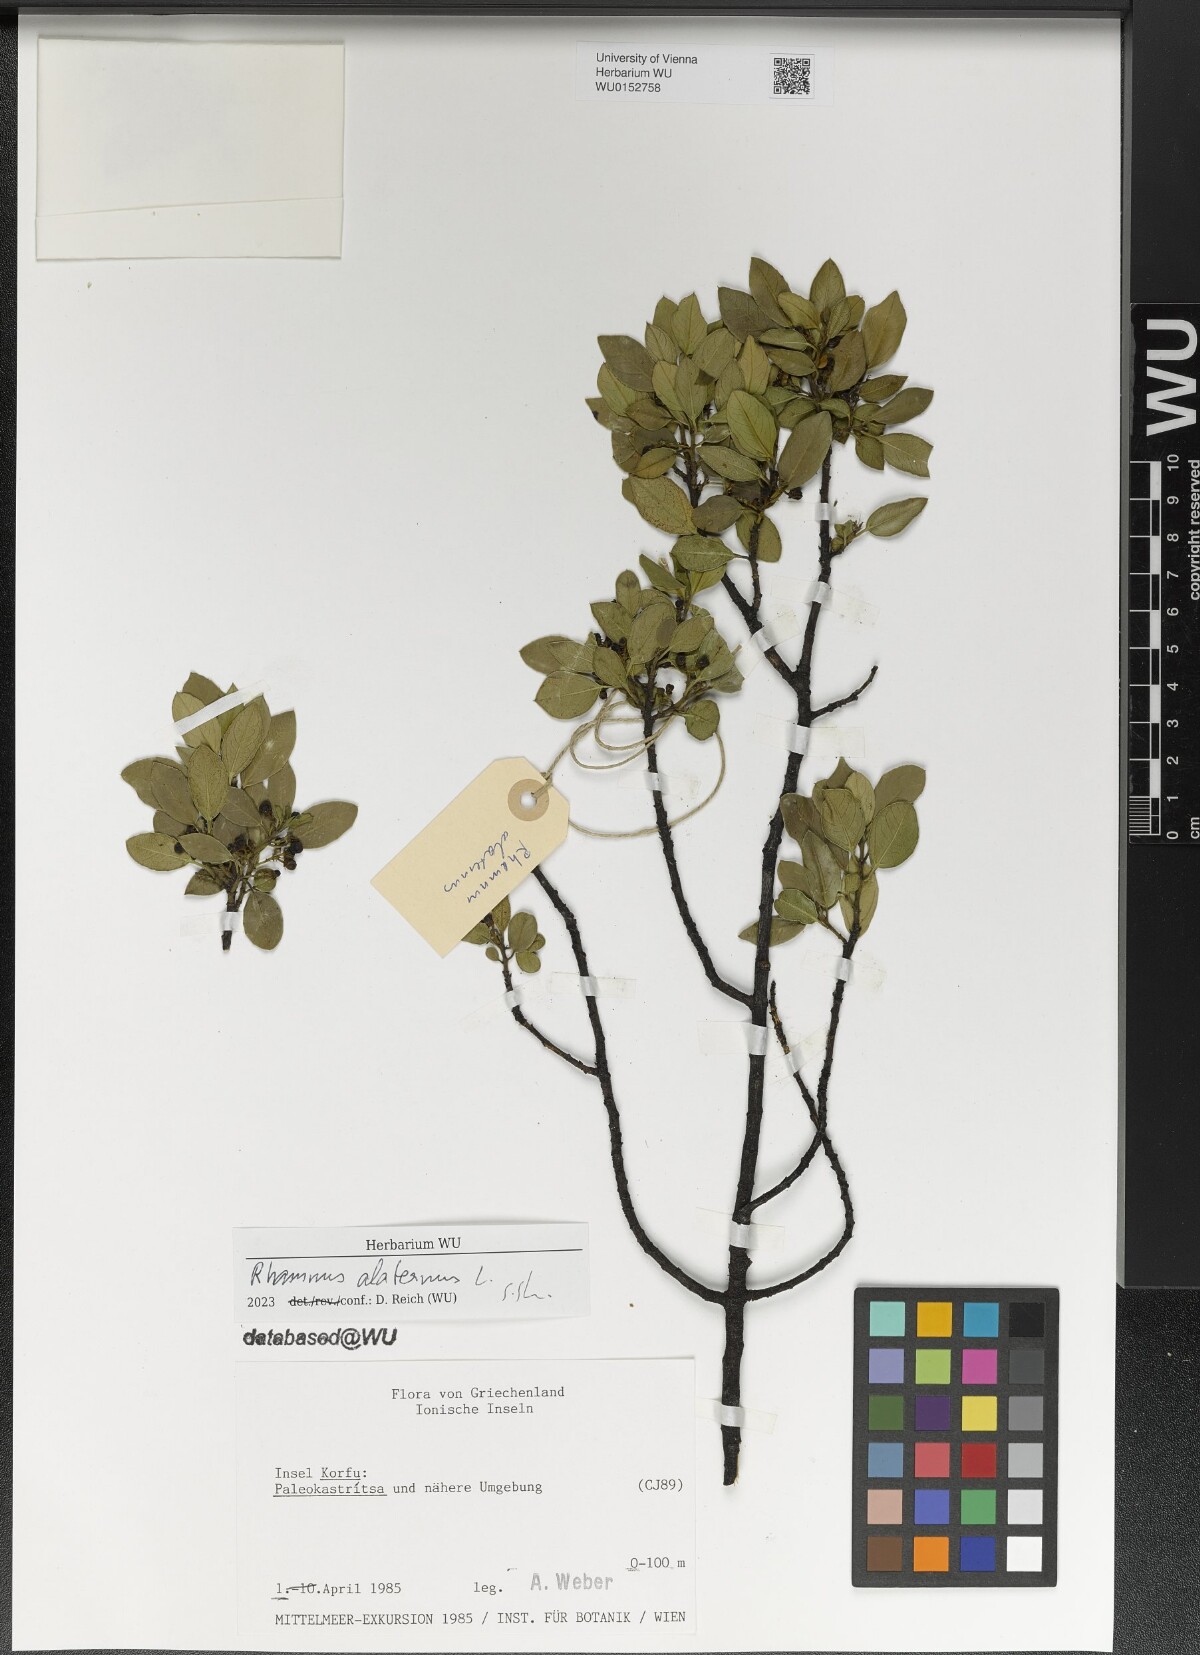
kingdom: Plantae
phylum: Tracheophyta
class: Magnoliopsida
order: Rosales
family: Rhamnaceae
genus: Rhamnus
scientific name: Rhamnus alaternus
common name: Mediterranean buckthorn
